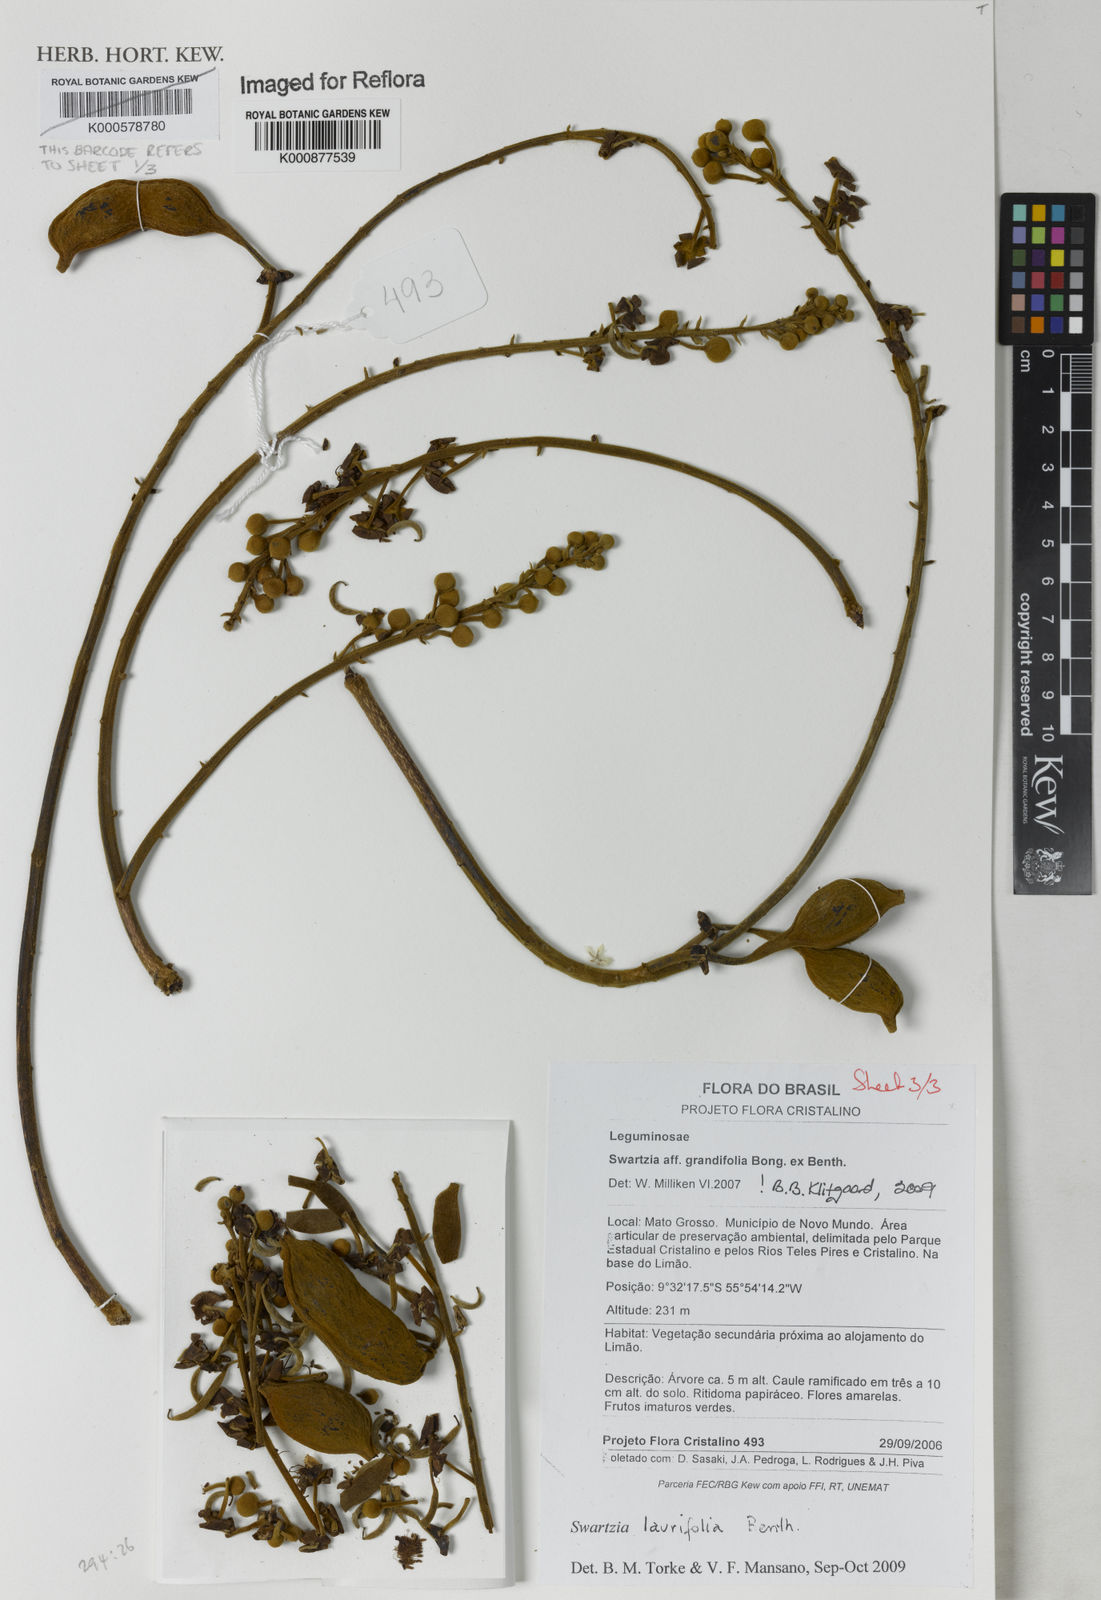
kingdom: Plantae
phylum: Tracheophyta
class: Magnoliopsida
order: Fabales
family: Fabaceae
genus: Swartzia
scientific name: Swartzia laurifolia
